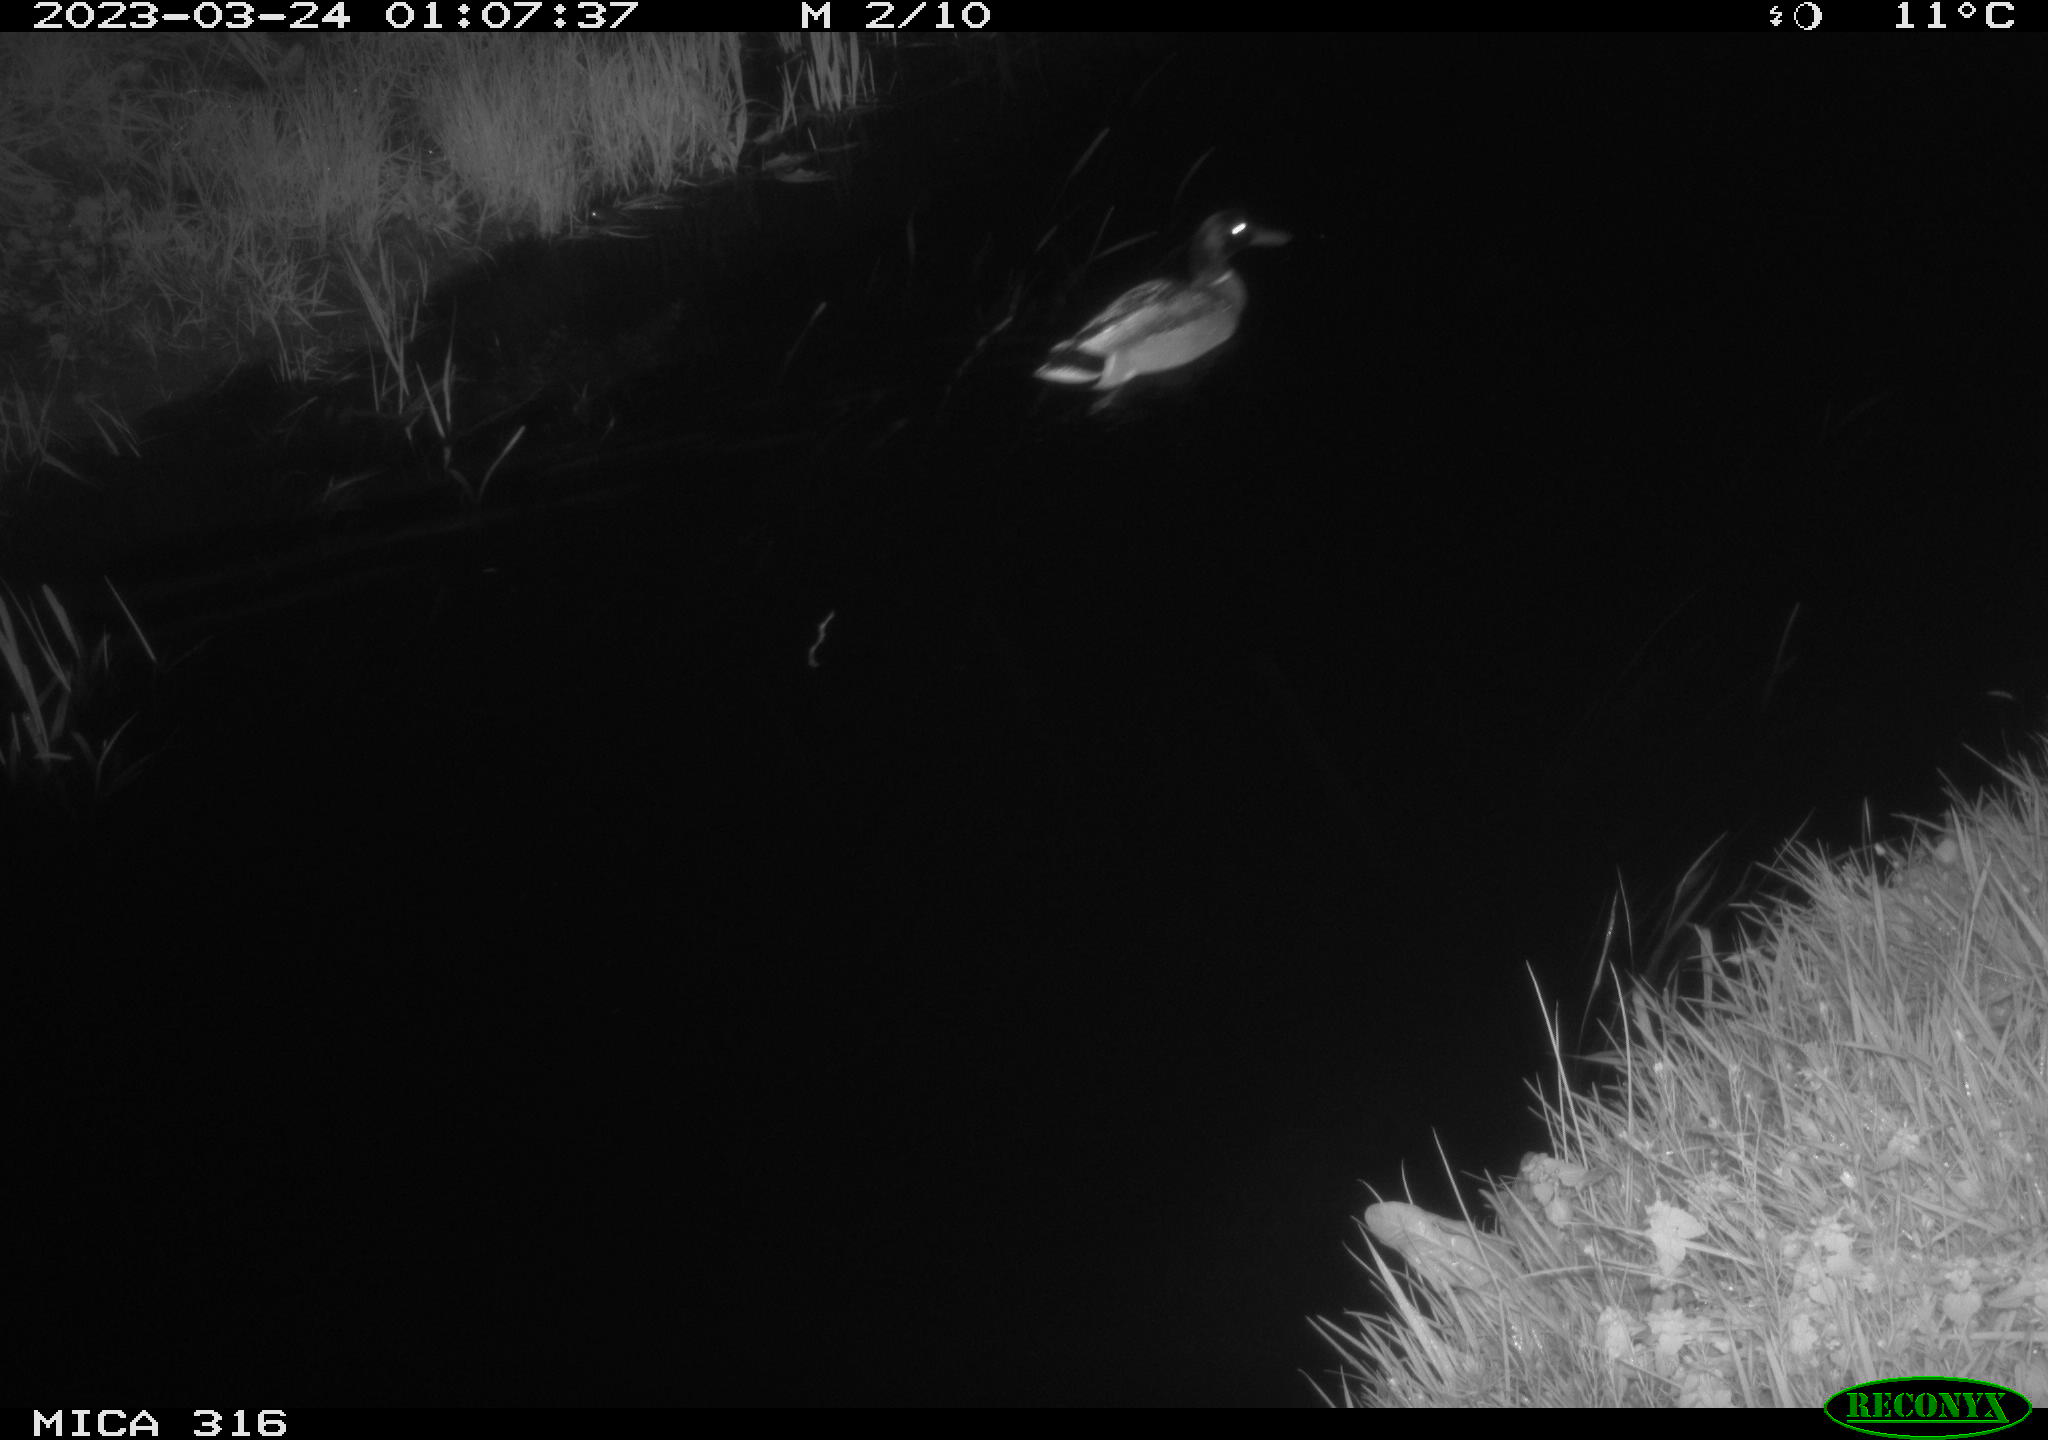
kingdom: Animalia
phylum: Chordata
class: Aves
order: Anseriformes
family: Anatidae
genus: Anas
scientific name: Anas
